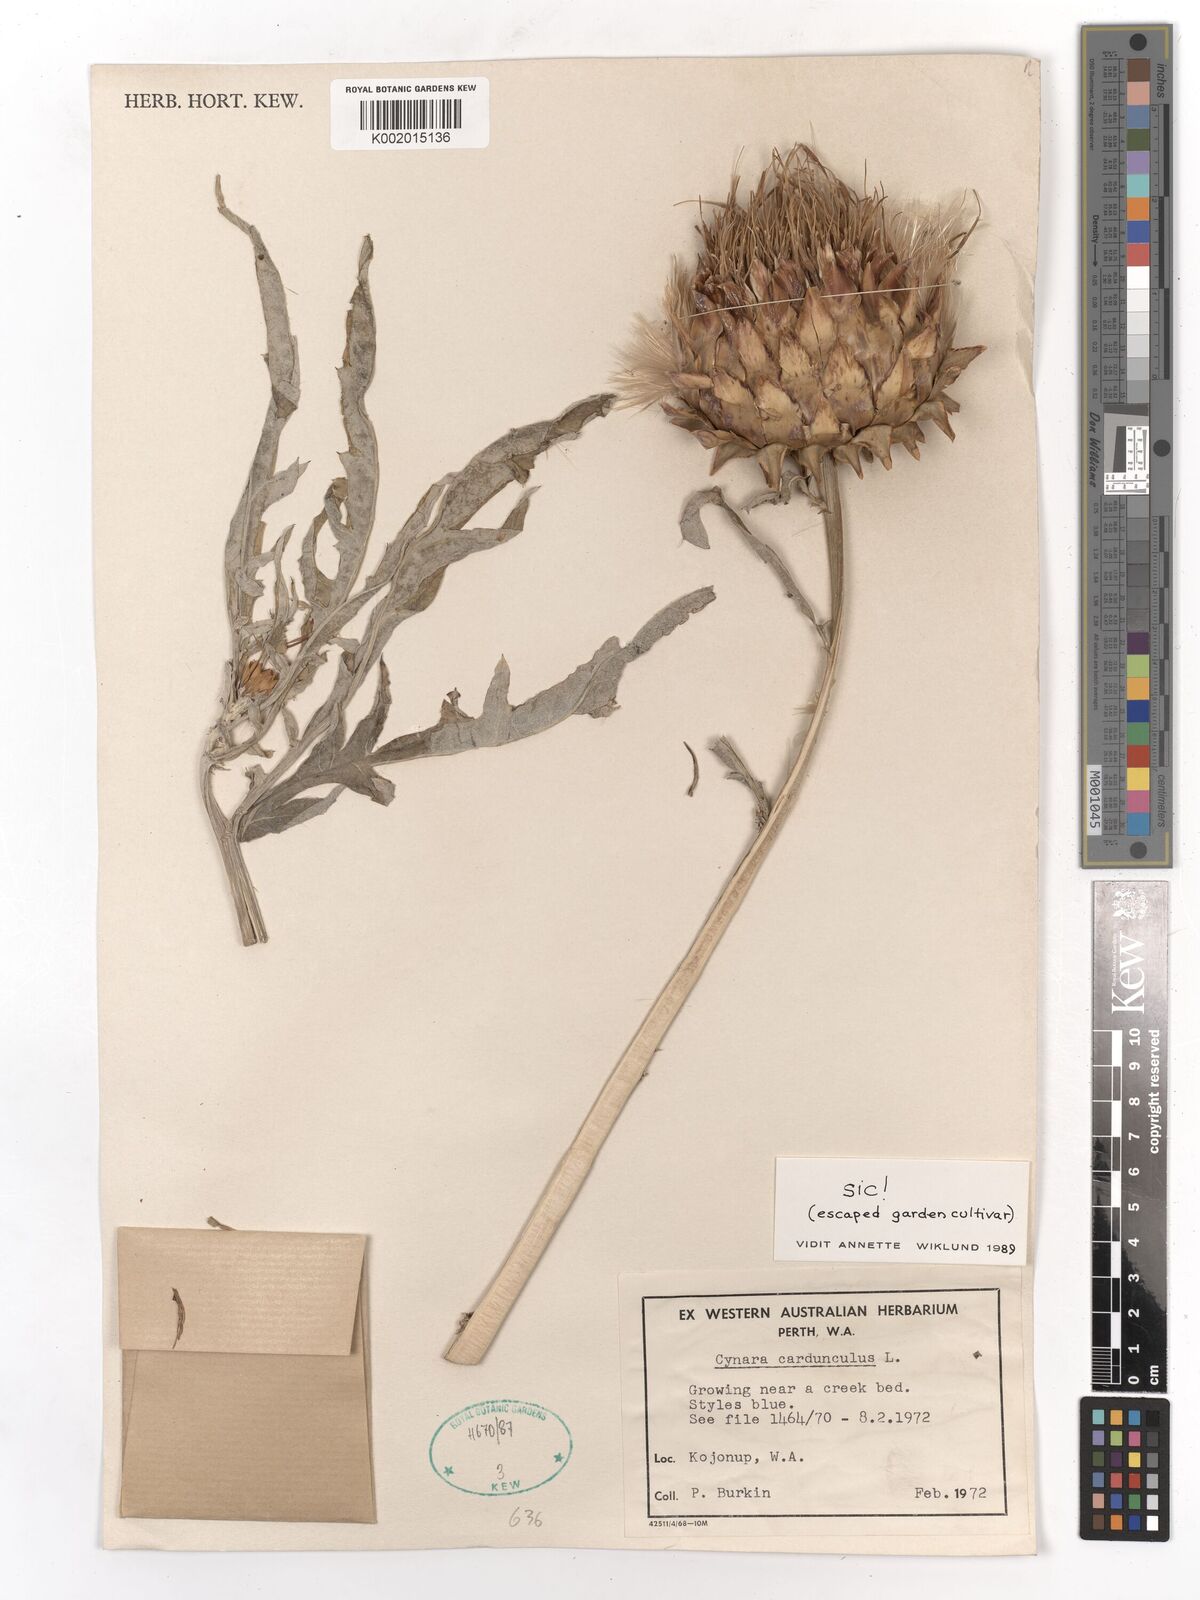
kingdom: Plantae
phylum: Tracheophyta
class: Magnoliopsida
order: Asterales
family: Asteraceae
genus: Cynara
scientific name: Cynara cardunculus
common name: Globe artichoke
